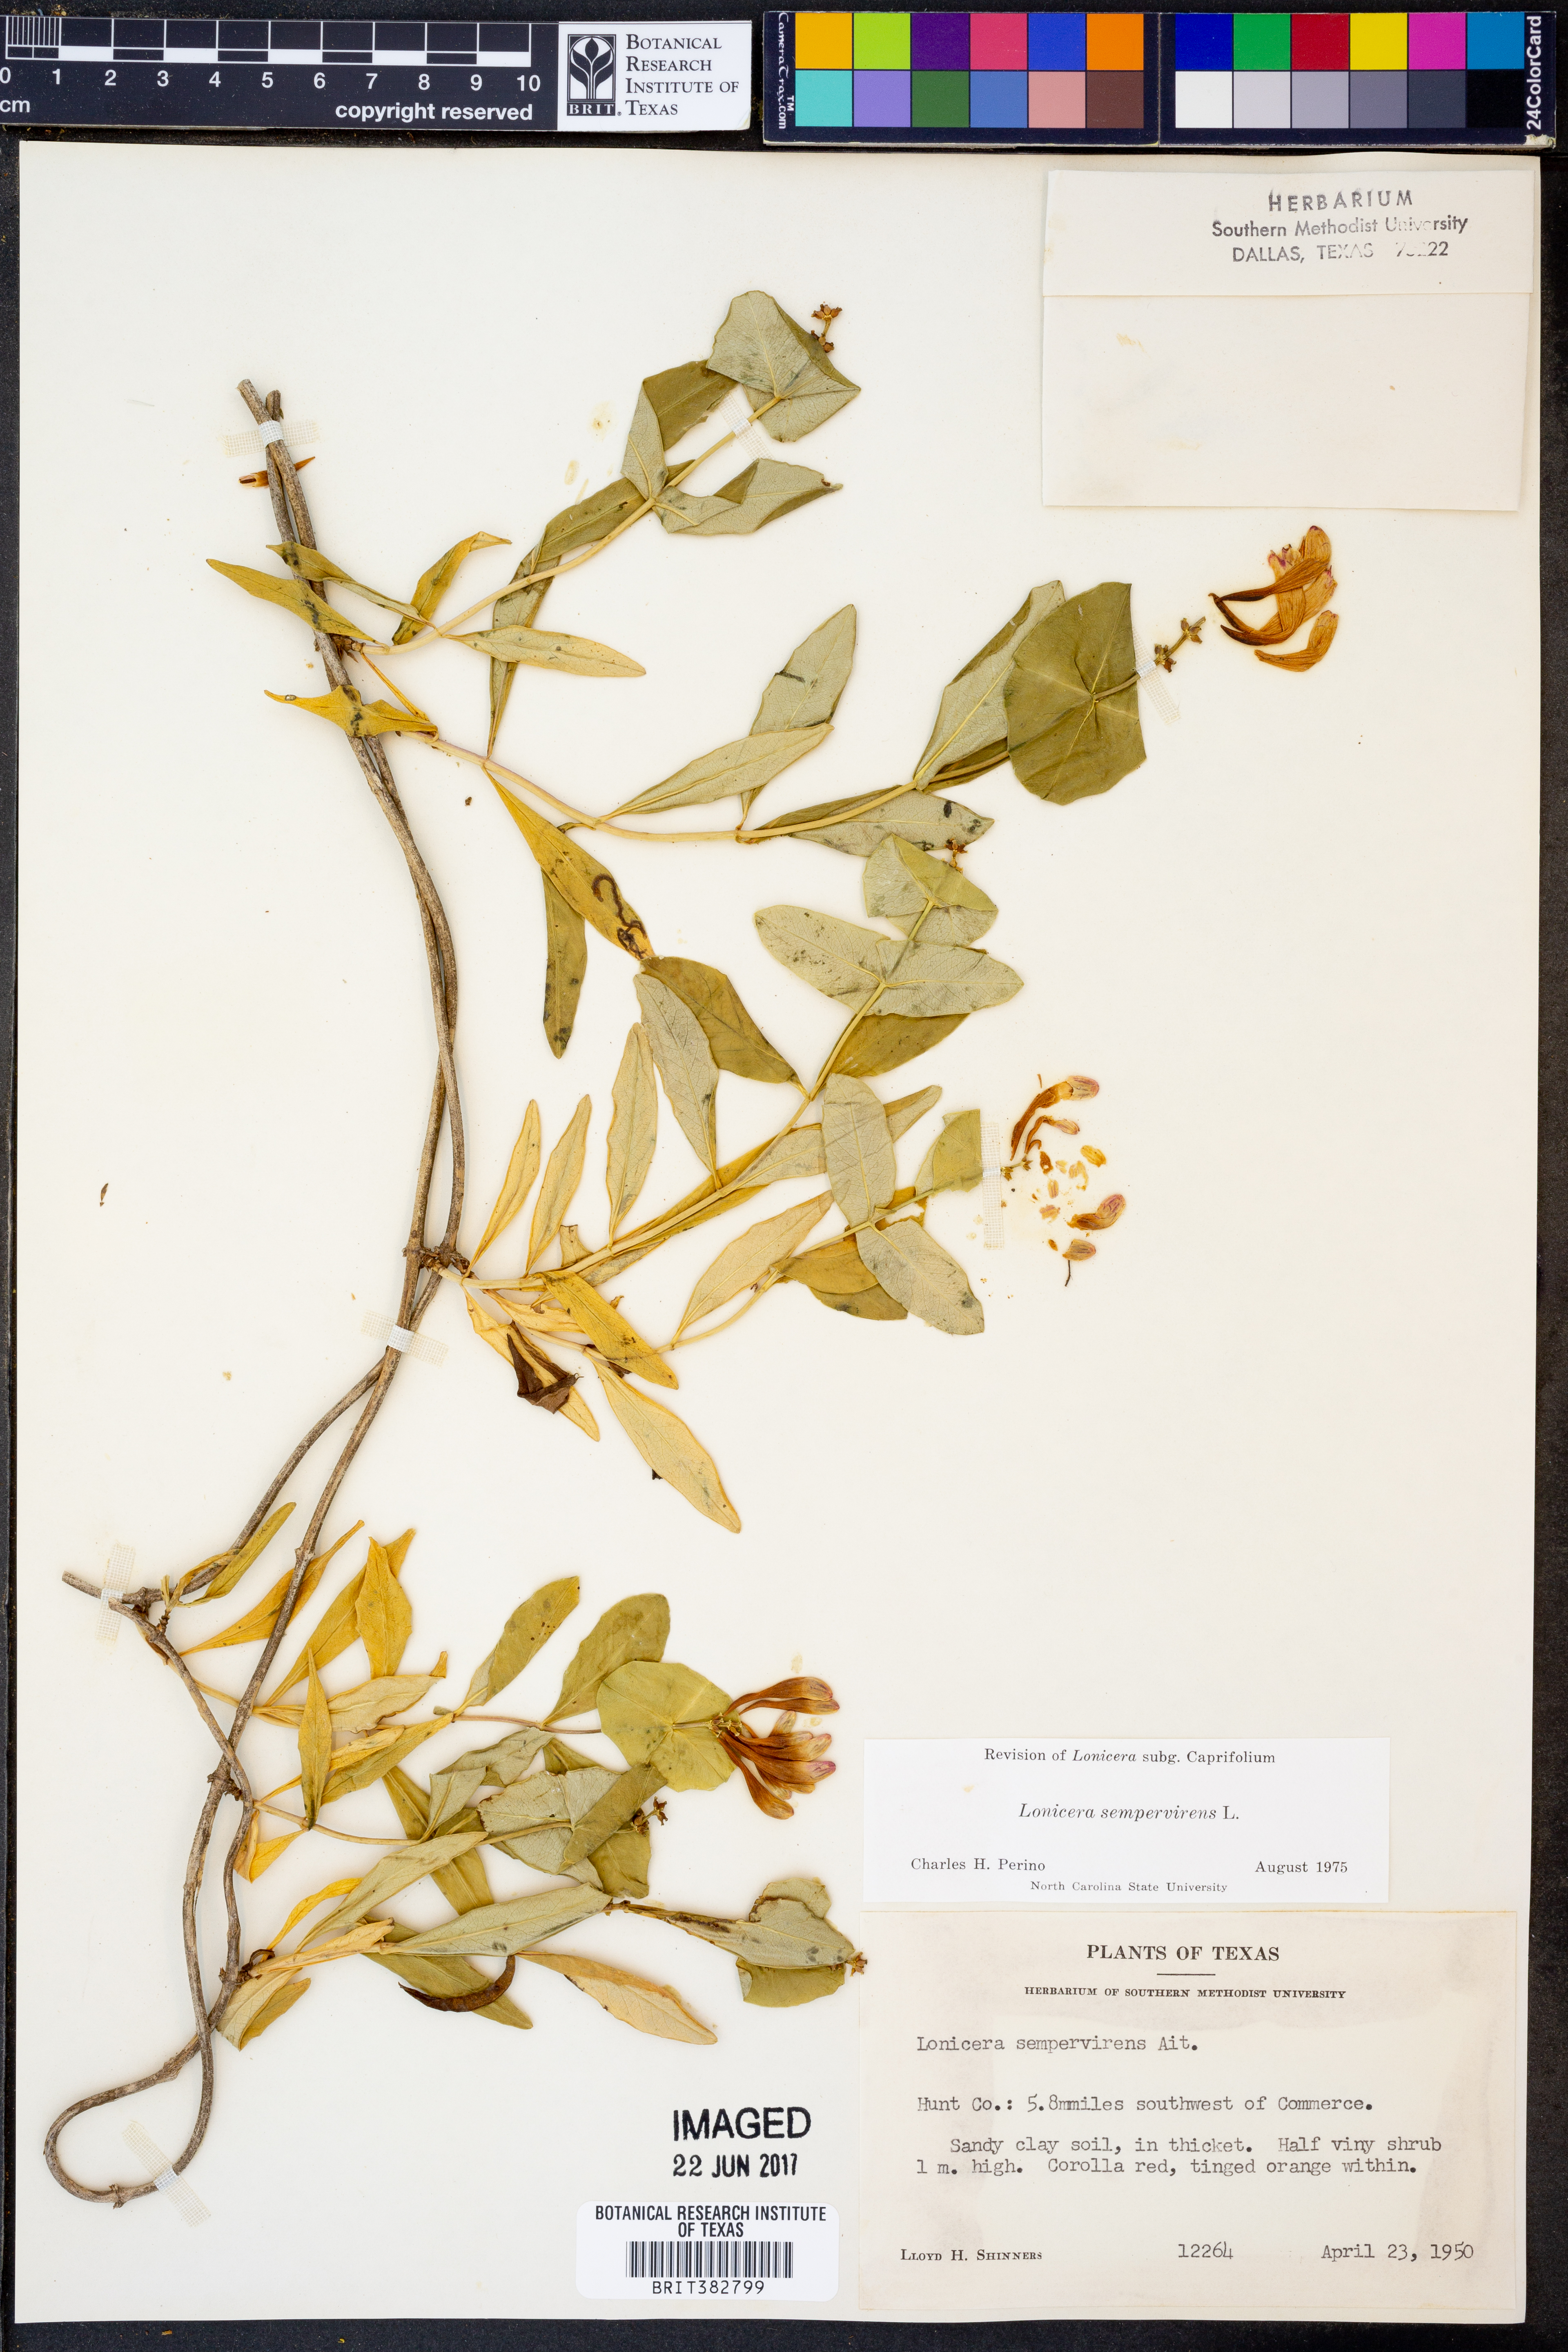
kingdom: Plantae
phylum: Tracheophyta
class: Magnoliopsida
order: Dipsacales
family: Caprifoliaceae
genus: Lonicera
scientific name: Lonicera sempervirens
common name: Coral honeysuckle
